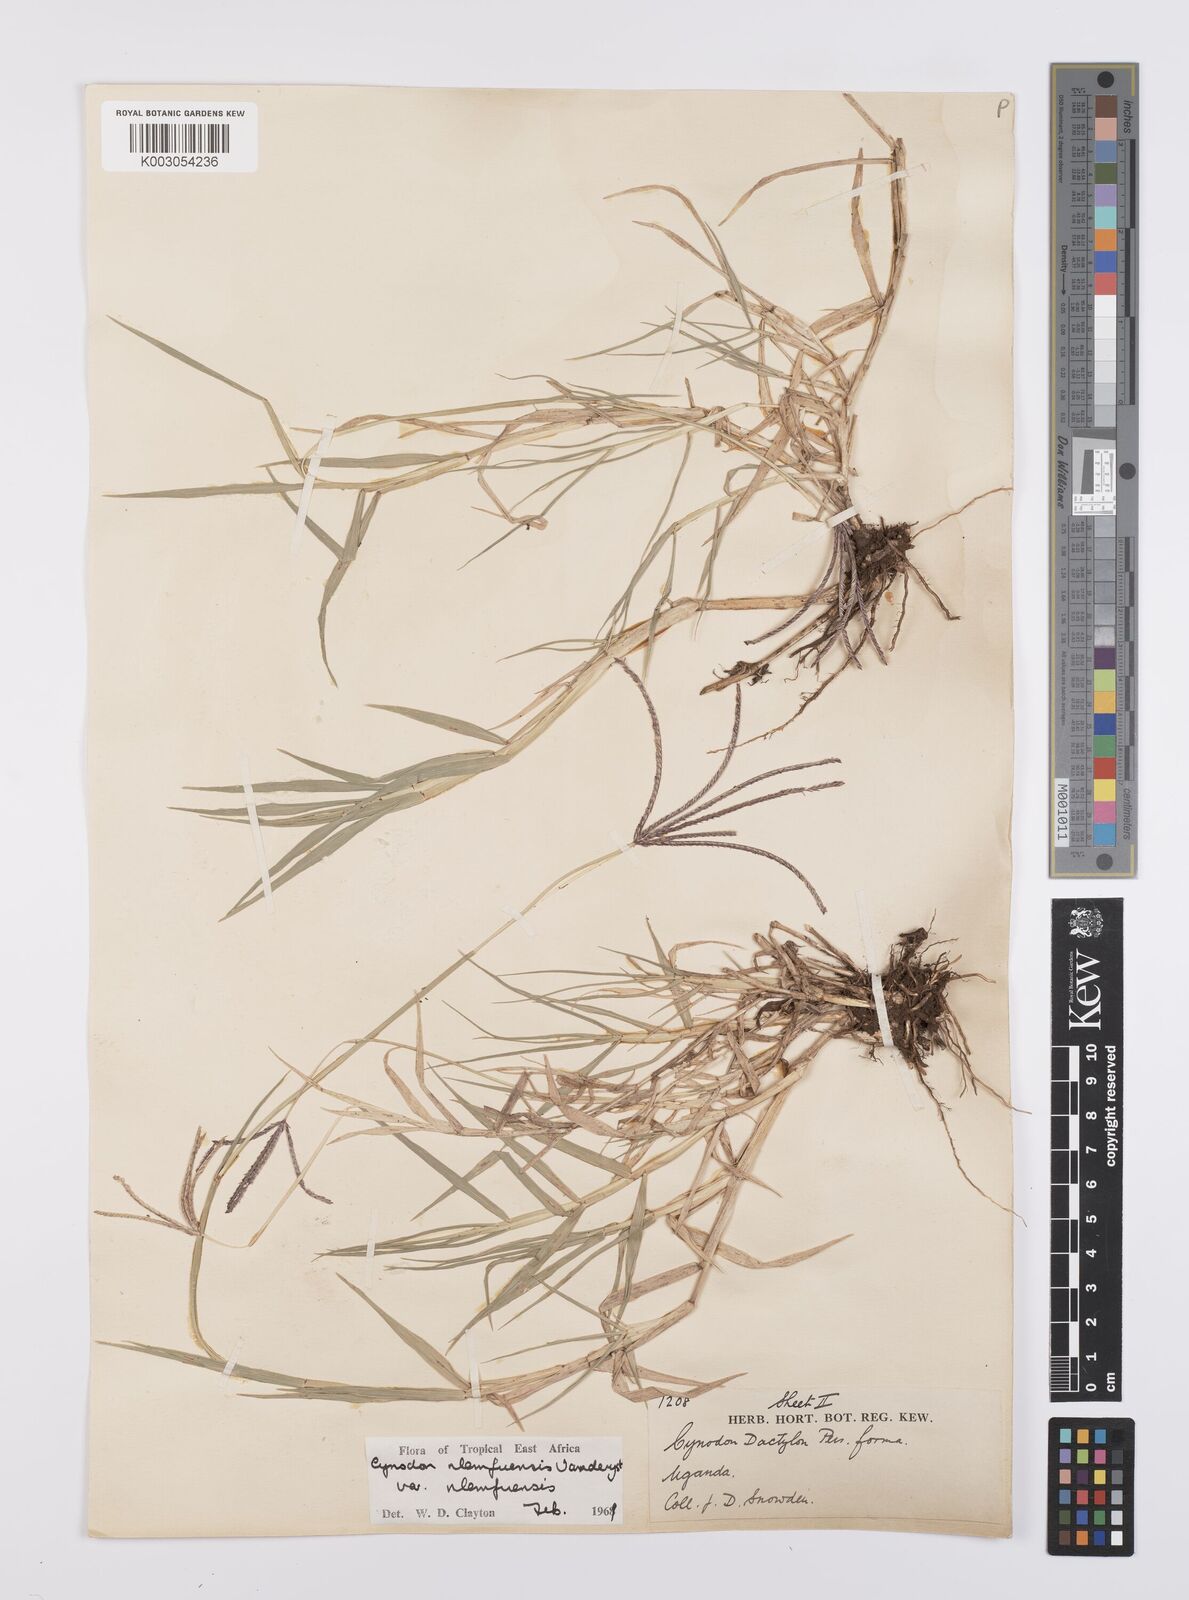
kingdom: Plantae
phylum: Tracheophyta
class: Liliopsida
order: Poales
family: Poaceae
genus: Cynodon
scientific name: Cynodon nlemfuensis
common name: African bermudagrass
